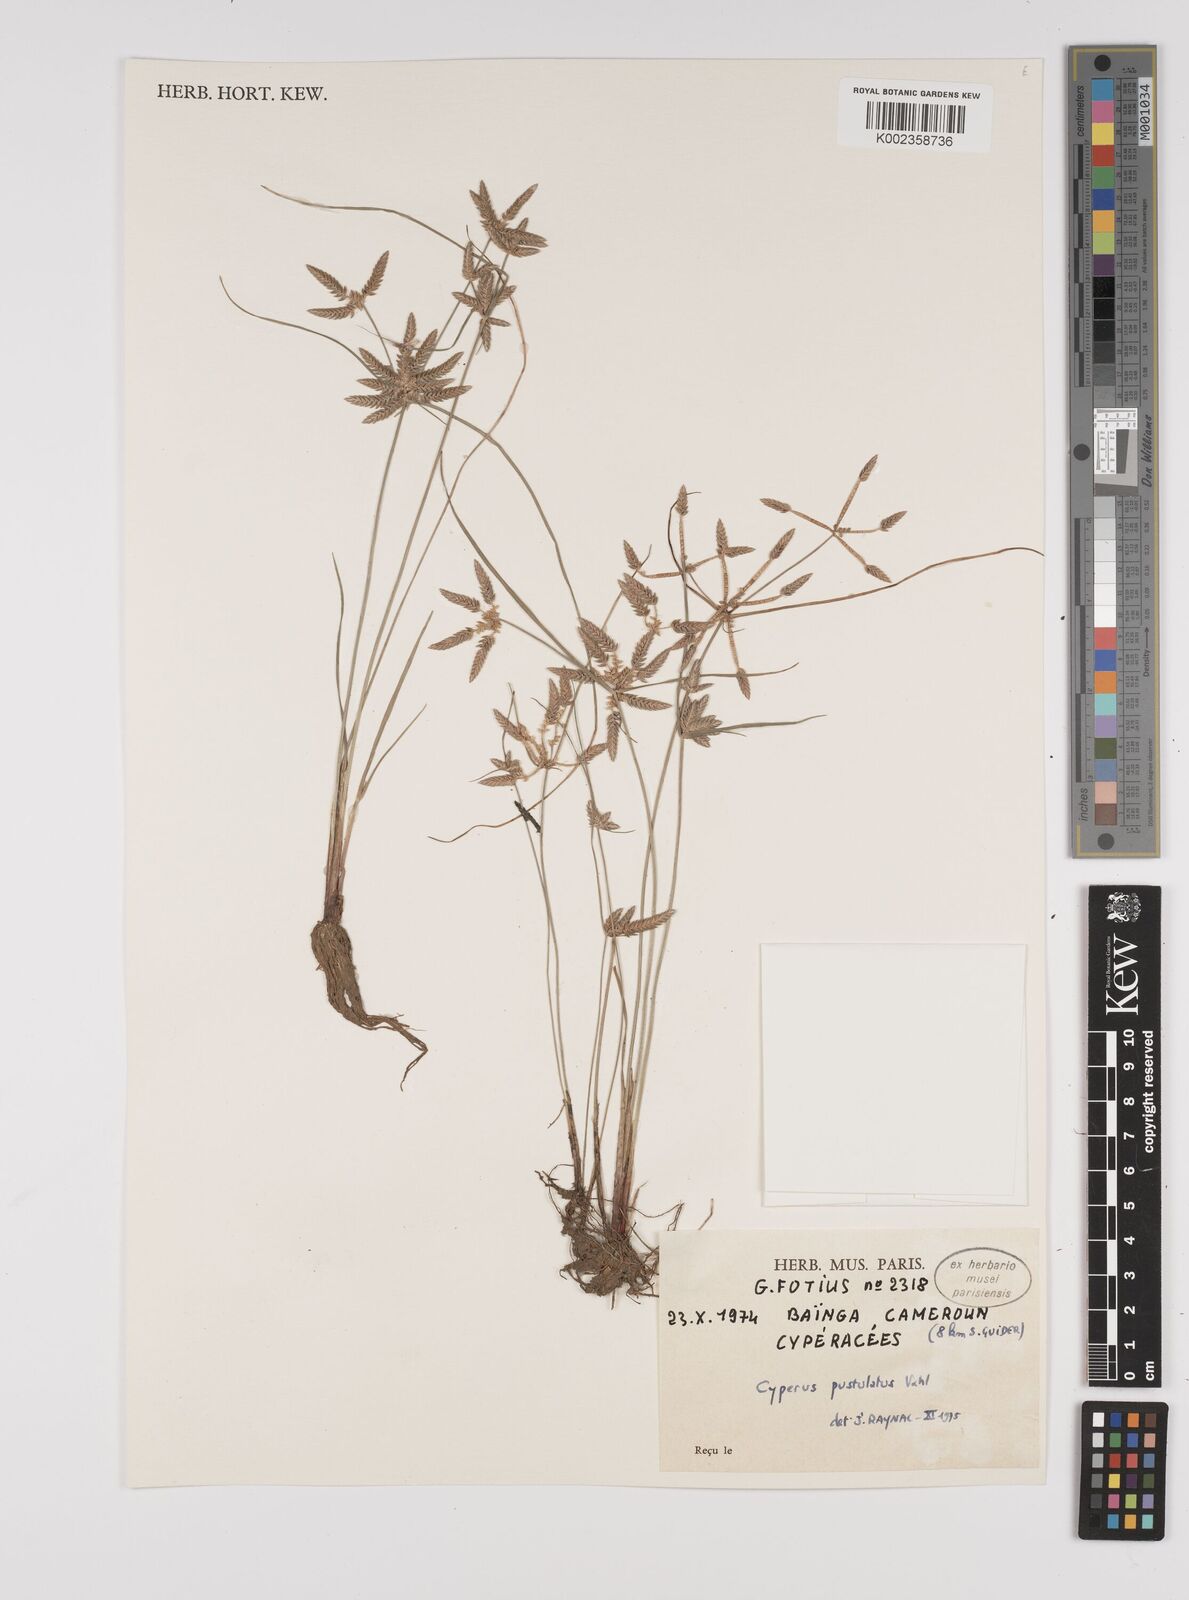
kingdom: Plantae
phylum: Tracheophyta
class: Liliopsida
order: Poales
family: Cyperaceae
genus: Cyperus
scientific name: Cyperus pustulatus
